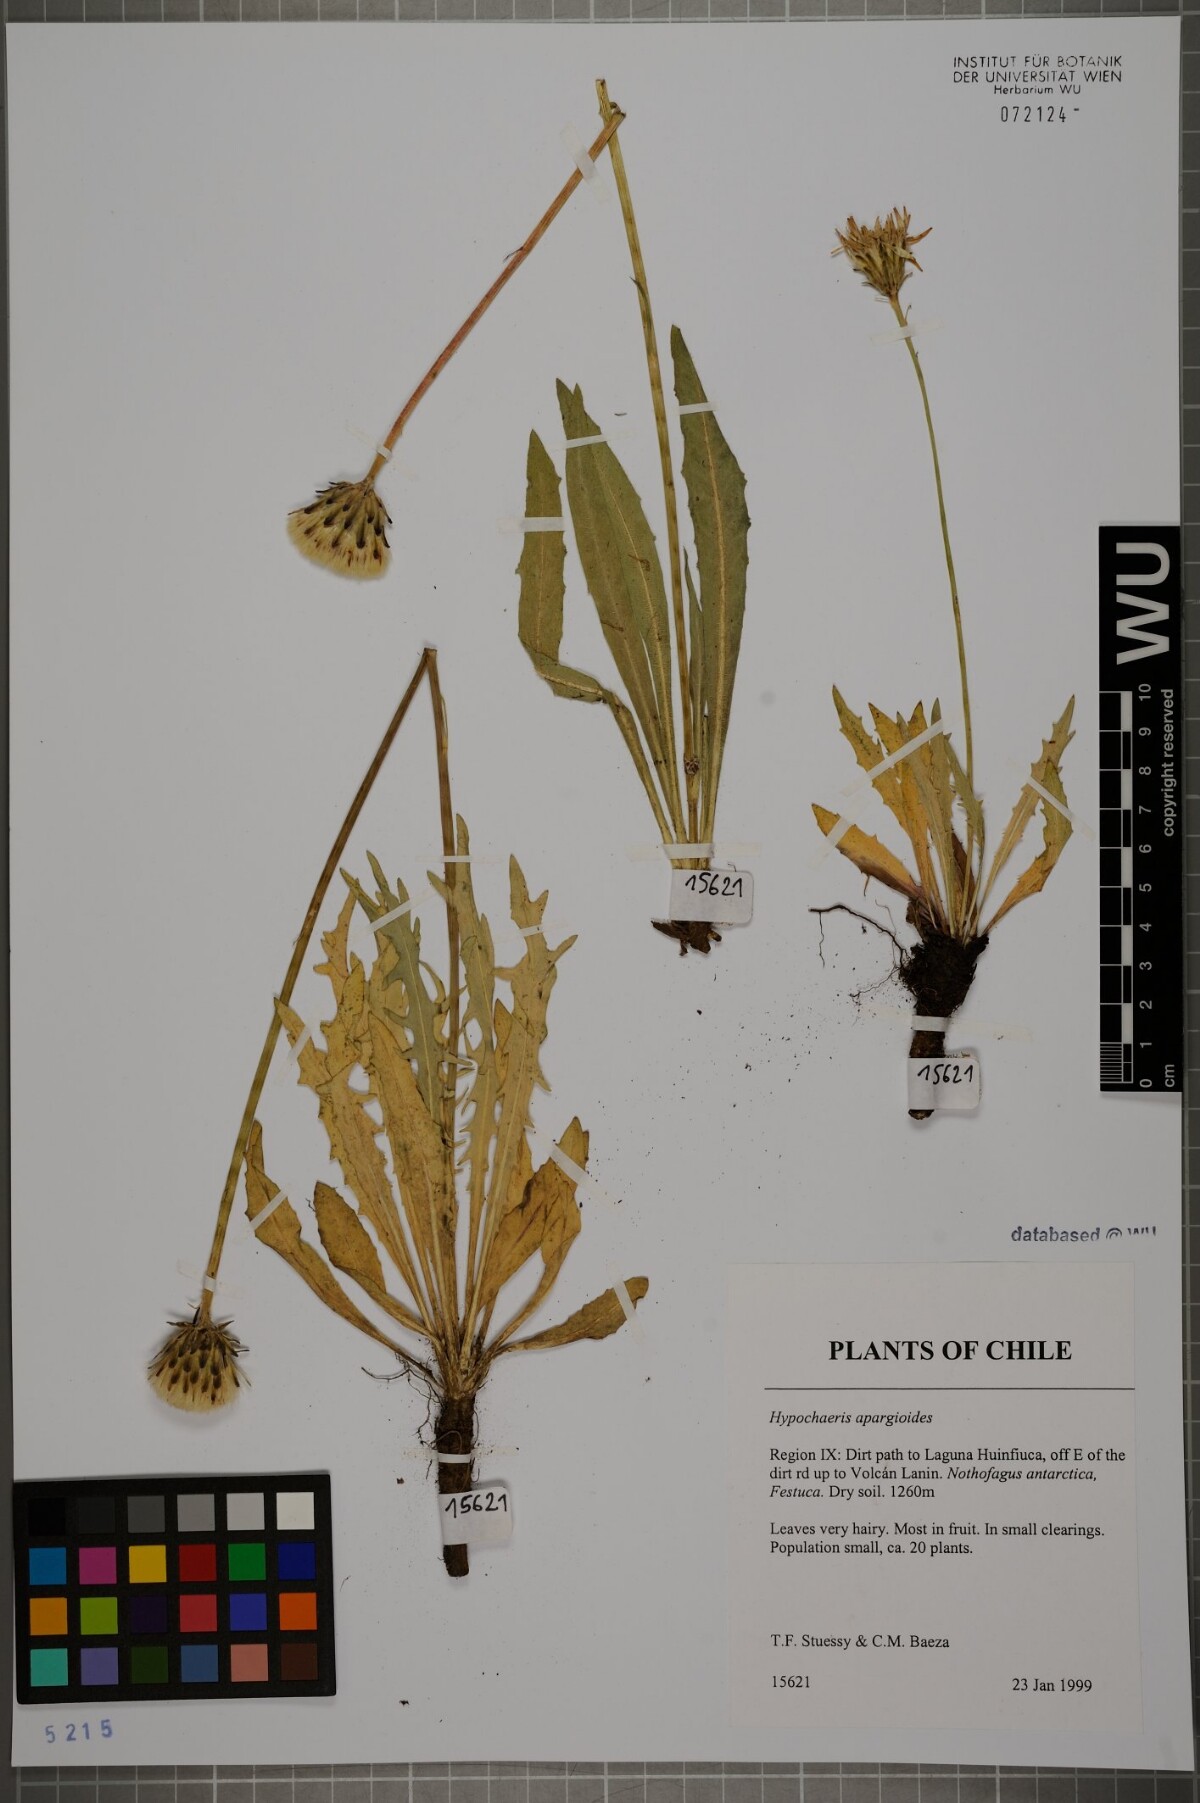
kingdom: Plantae
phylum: Tracheophyta
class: Magnoliopsida
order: Asterales
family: Asteraceae
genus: Hypochaeris
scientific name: Hypochaeris apargioides
